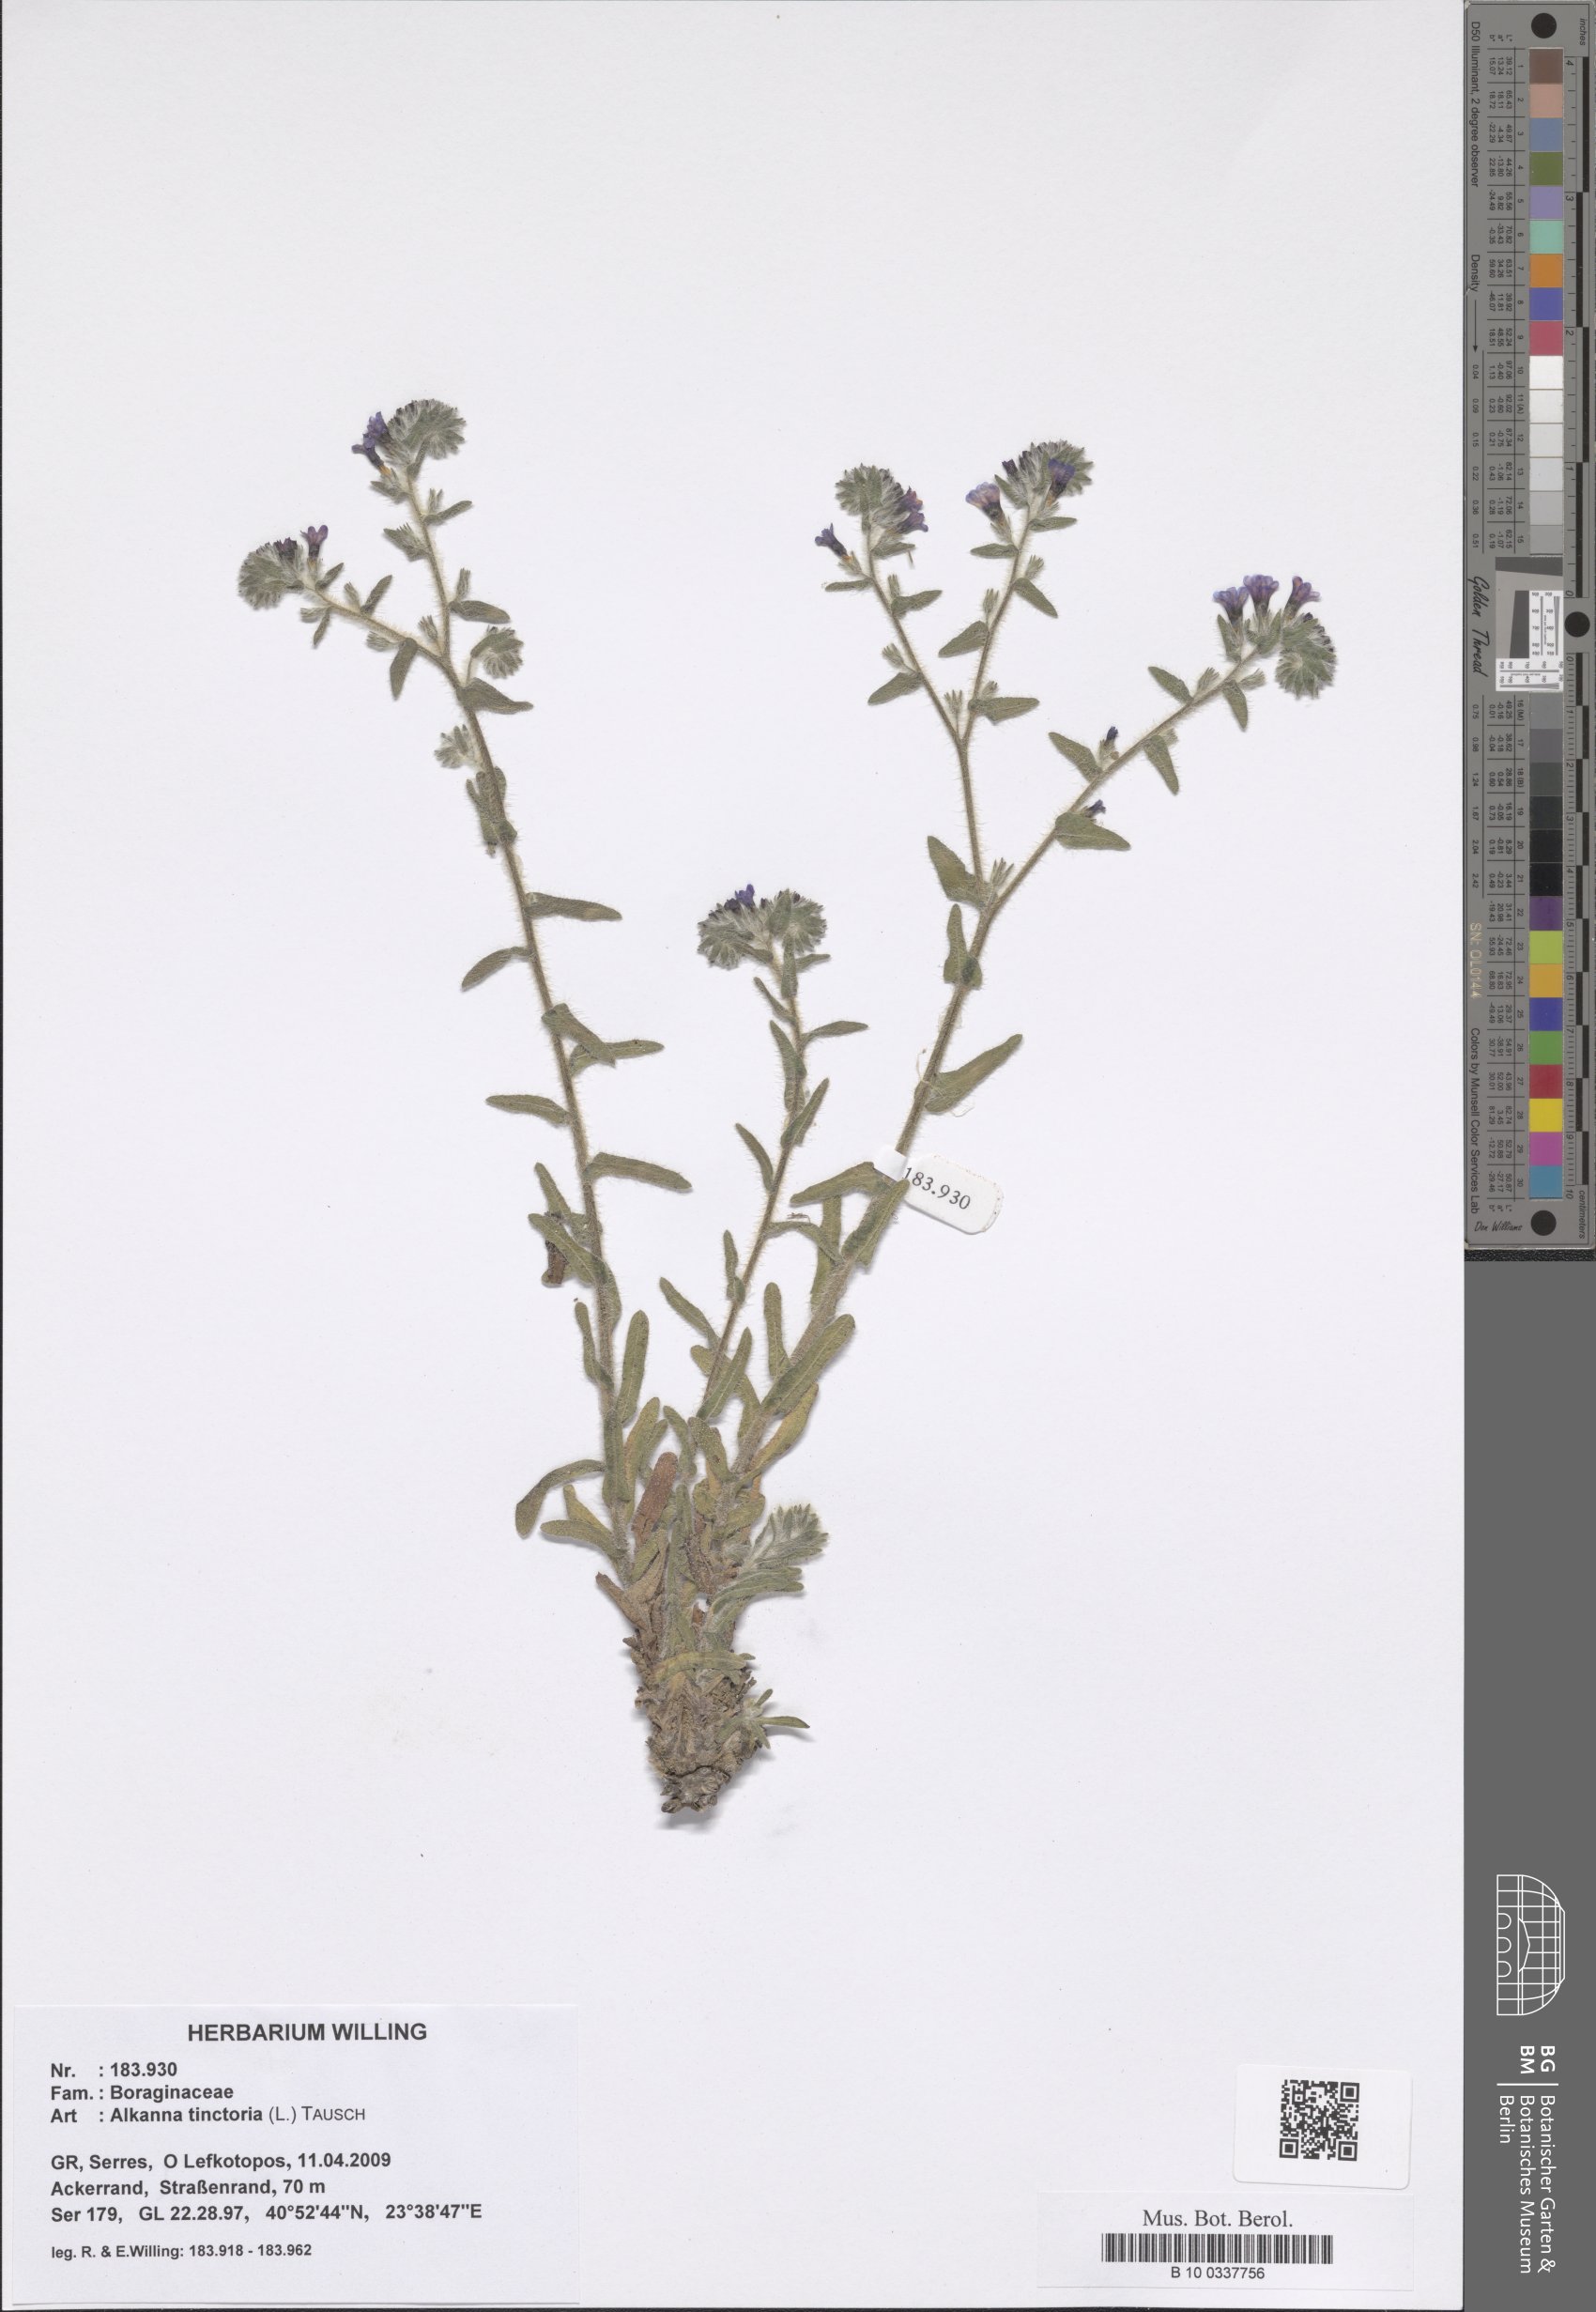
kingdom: Plantae
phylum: Tracheophyta
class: Magnoliopsida
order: Boraginales
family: Boraginaceae
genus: Alkanna
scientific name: Alkanna tinctoria
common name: Dyer's-alkanet
